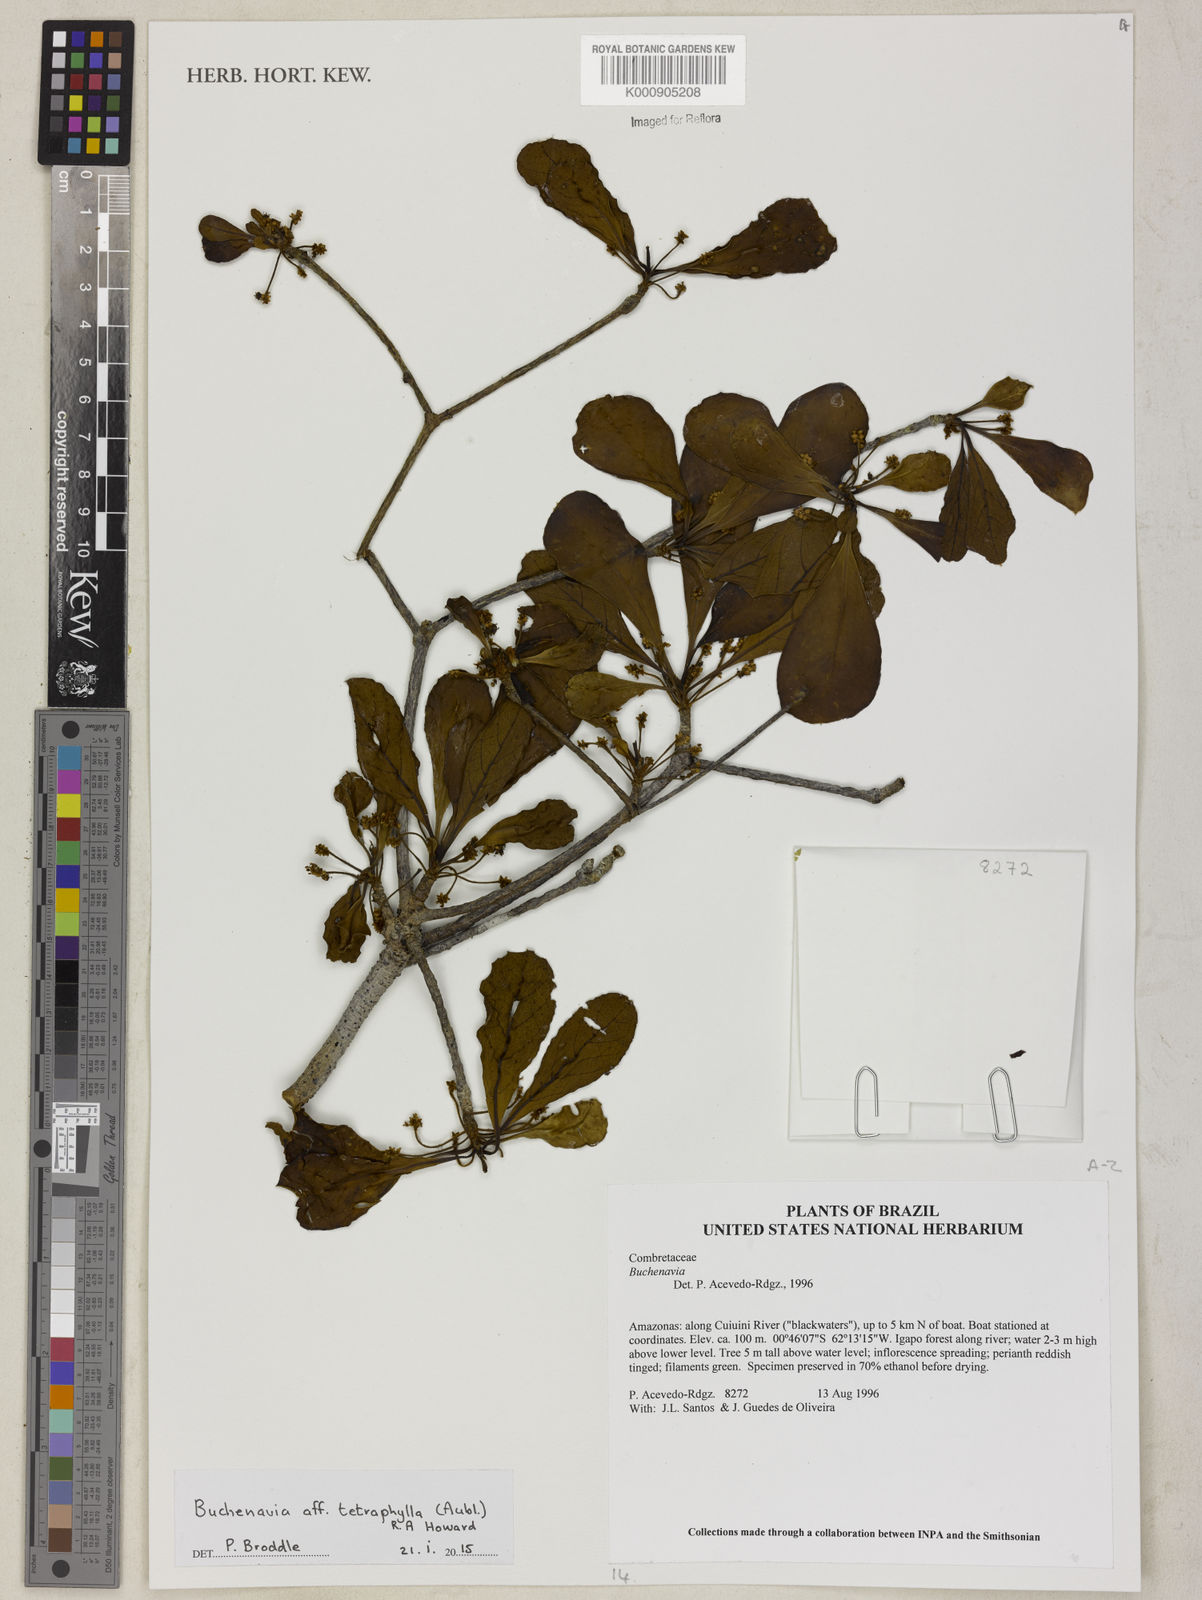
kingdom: Plantae
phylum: Tracheophyta
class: Magnoliopsida
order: Myrtales
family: Combretaceae
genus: Terminalia
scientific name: Terminalia tetraphylla
